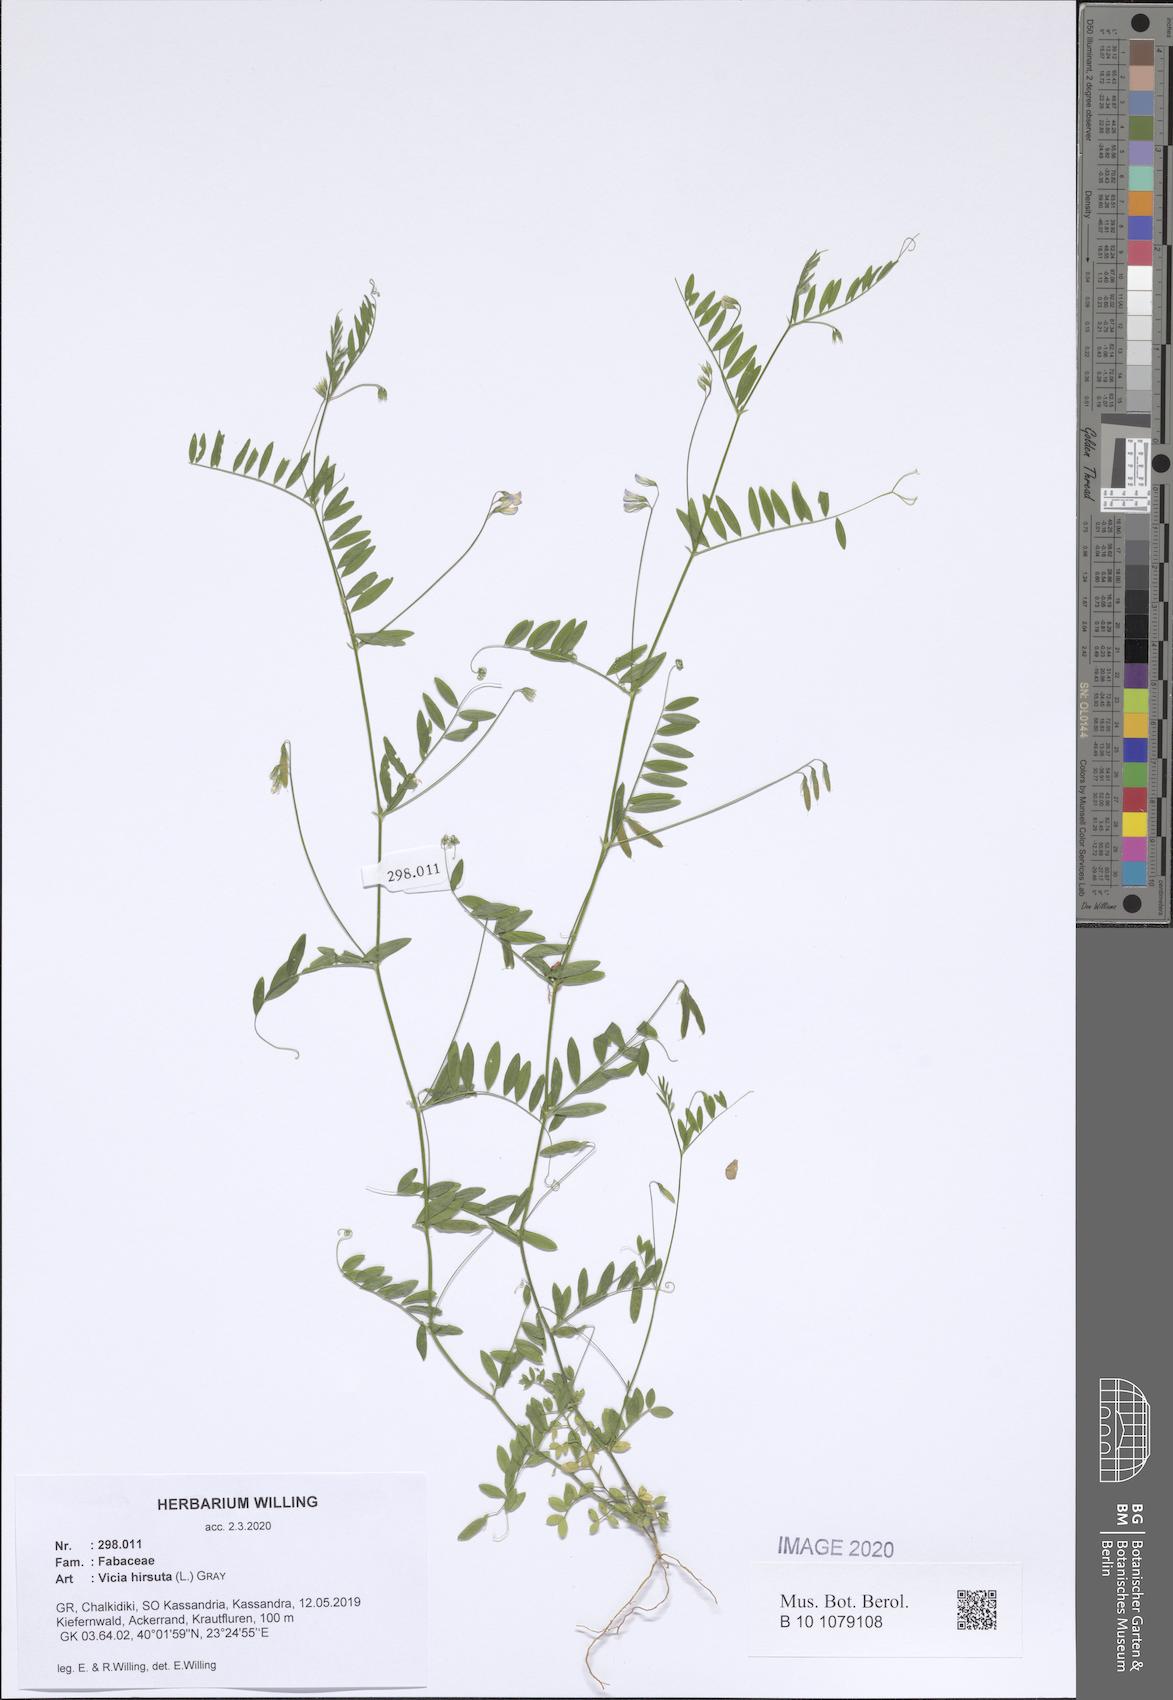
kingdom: Plantae
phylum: Tracheophyta
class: Magnoliopsida
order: Fabales
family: Fabaceae
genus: Vicia
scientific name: Vicia hirsuta
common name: Tiny vetch
